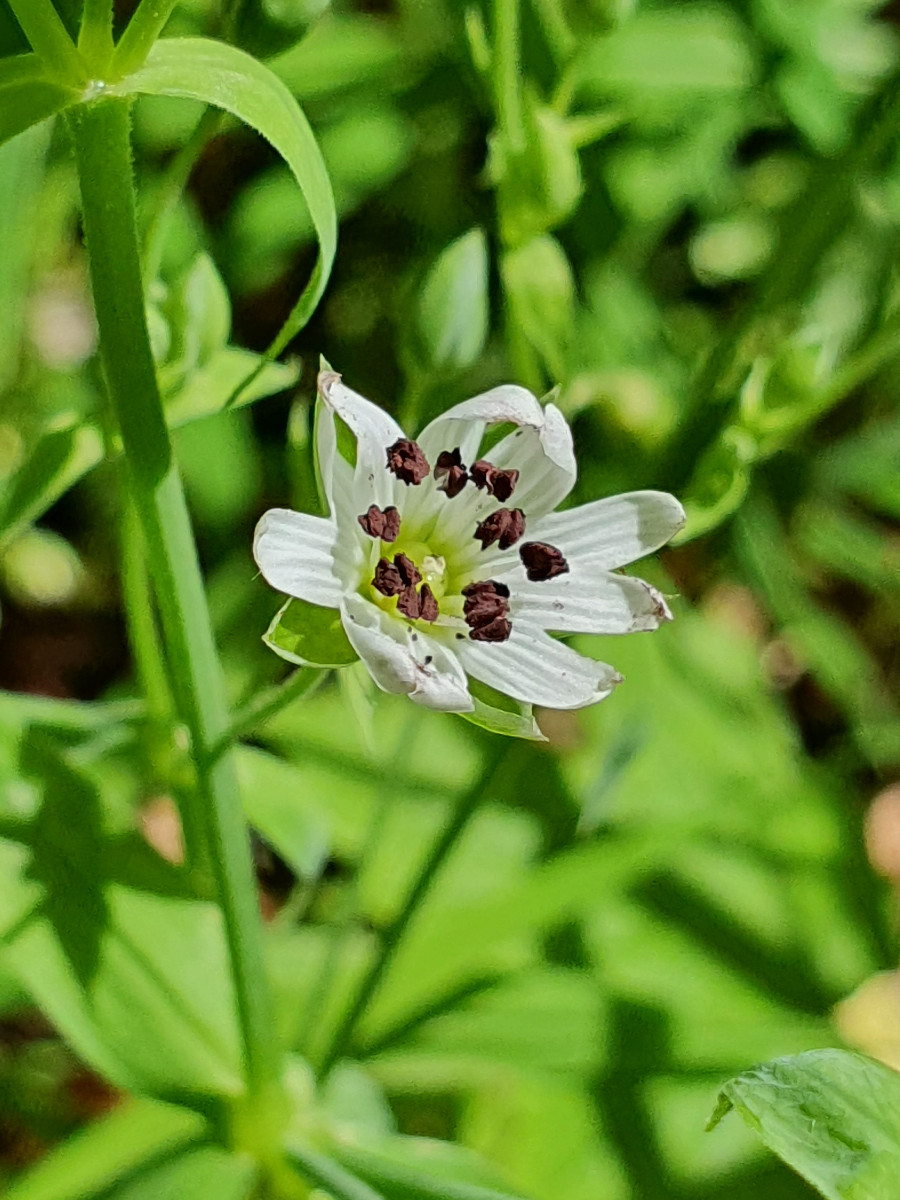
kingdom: Fungi
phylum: Basidiomycota
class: Microbotryomycetes
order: Microbotryales
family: Microbotryaceae
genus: Microbotryum
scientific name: Microbotryum stellariae
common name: fladstjerne-støvbladrust
